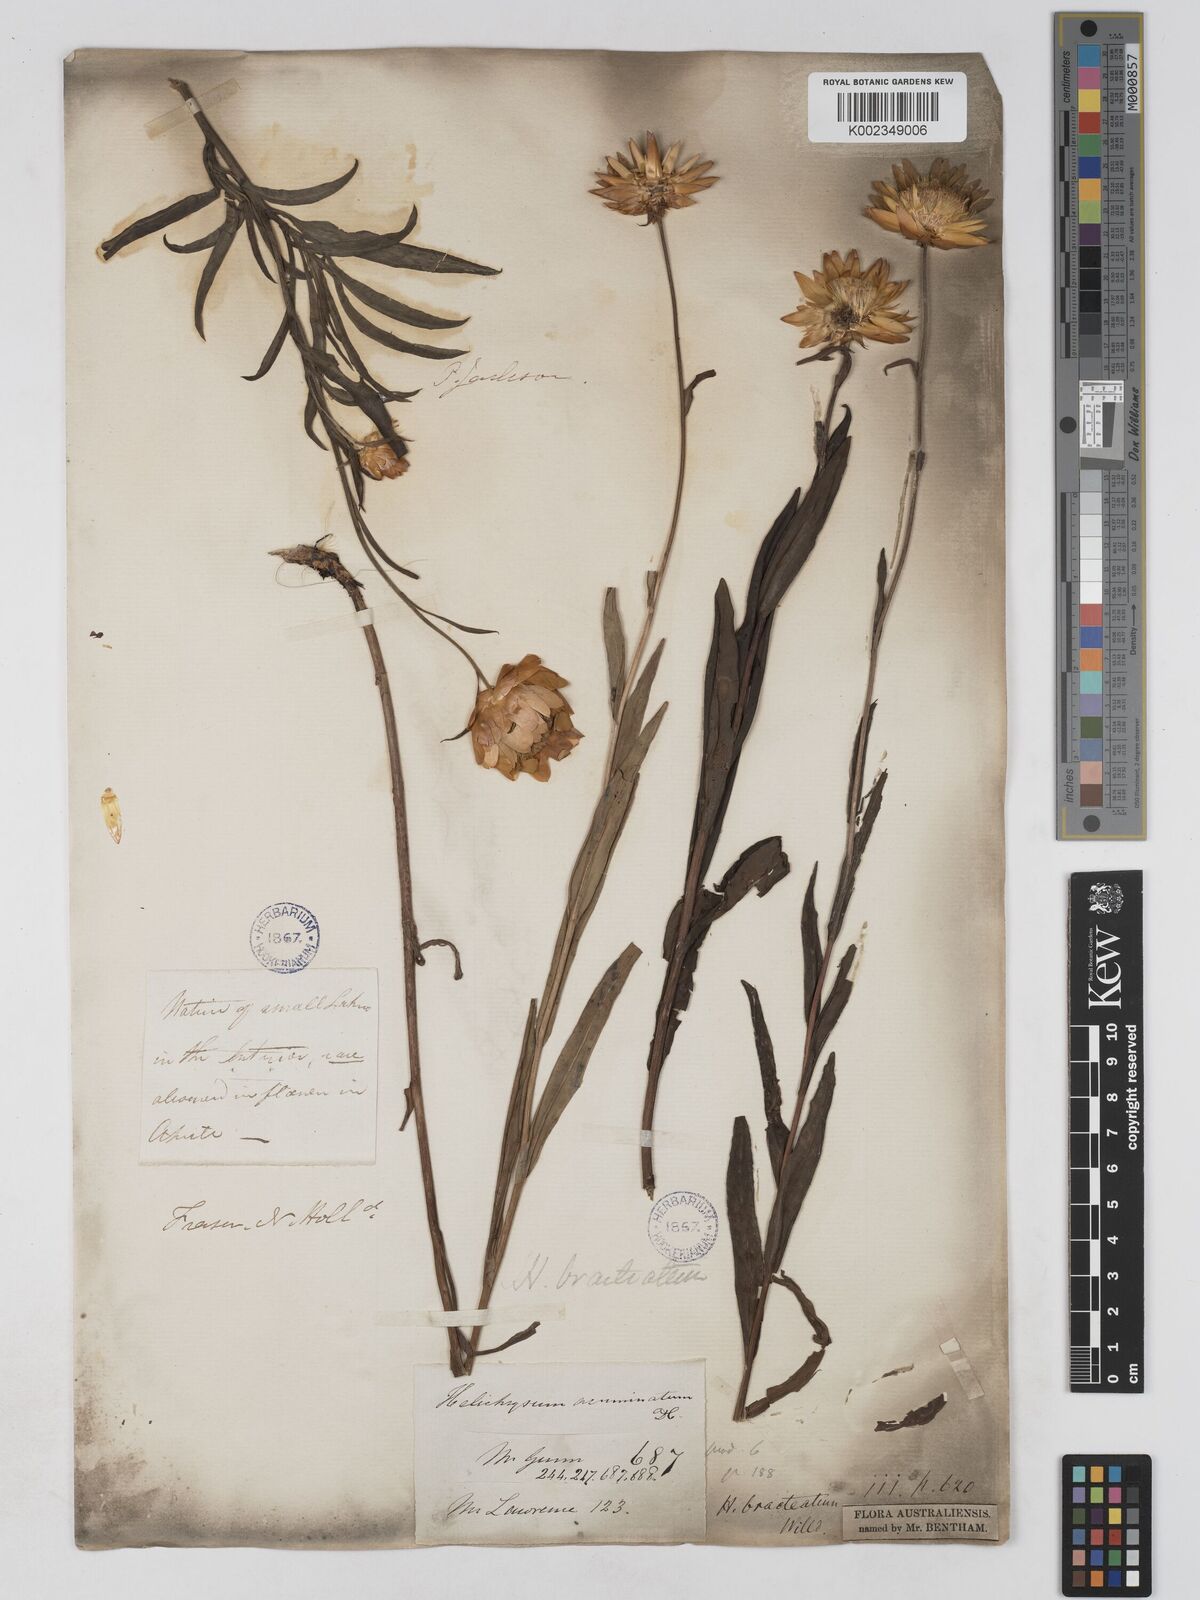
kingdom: Plantae
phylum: Tracheophyta
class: Magnoliopsida
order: Asterales
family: Asteraceae
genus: Xerochrysum
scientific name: Xerochrysum bracteatum
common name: Bracted strawflower
